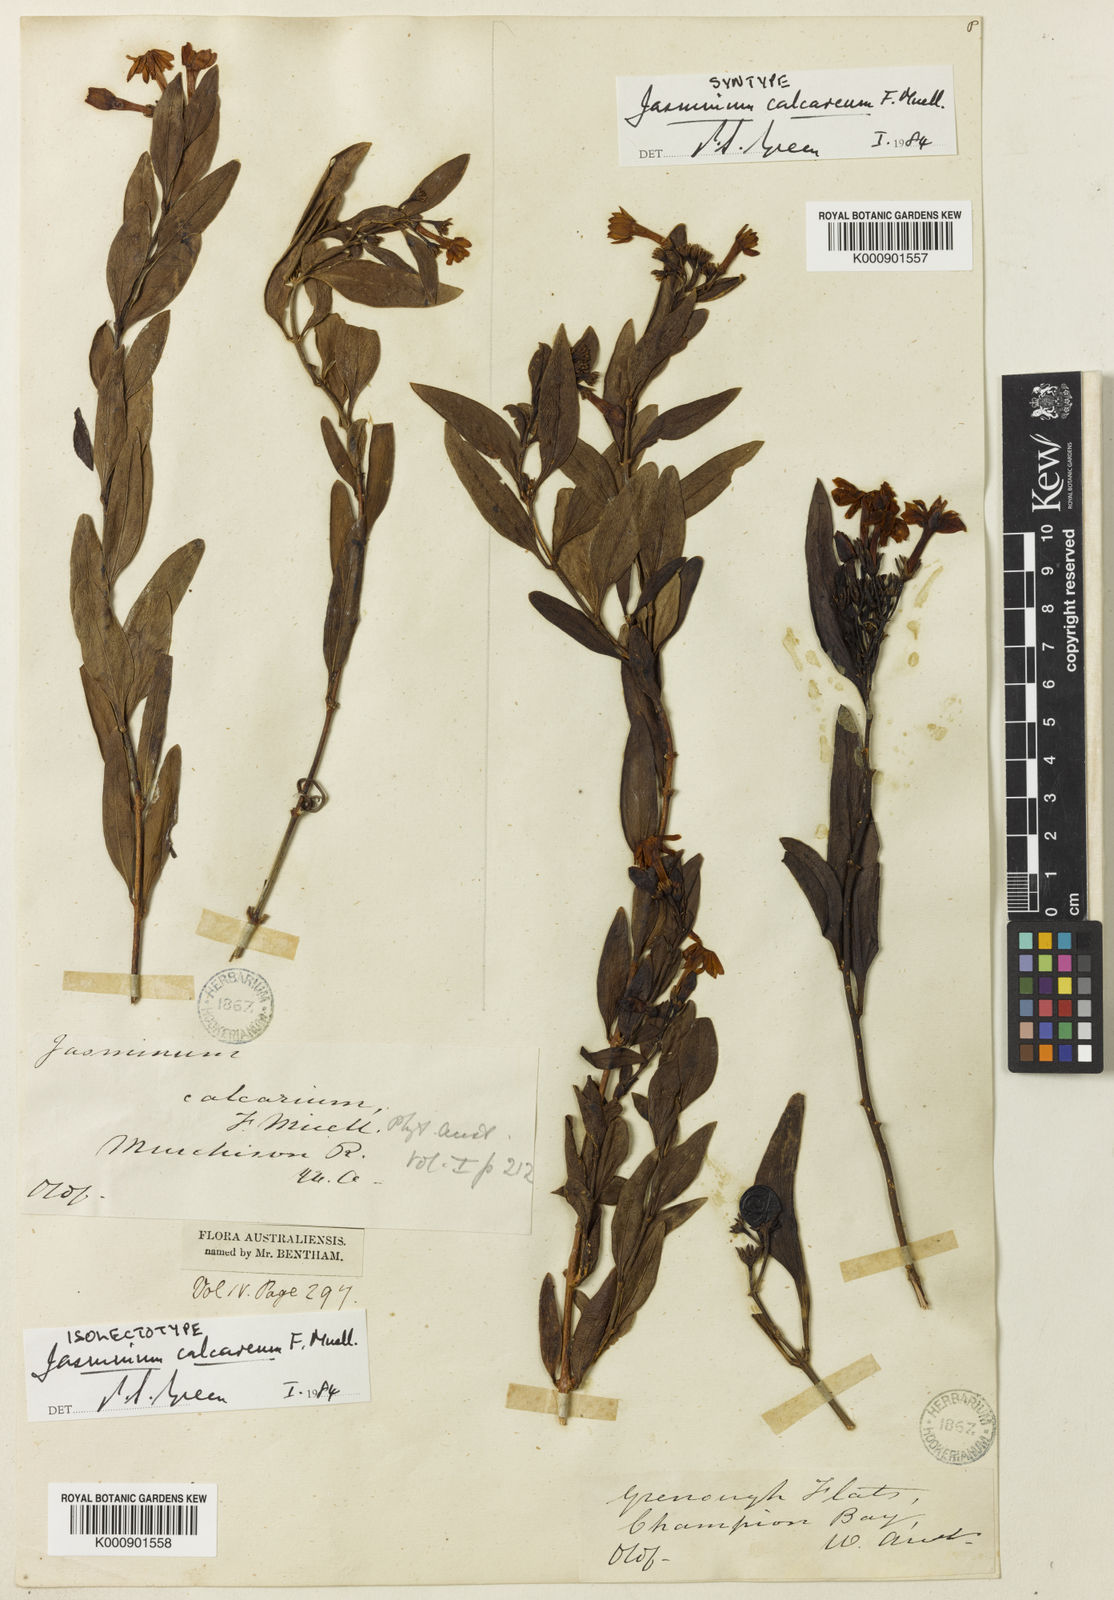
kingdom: Plantae
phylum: Tracheophyta
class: Magnoliopsida
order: Lamiales
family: Oleaceae
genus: Jasminum
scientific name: Jasminum calcareum
